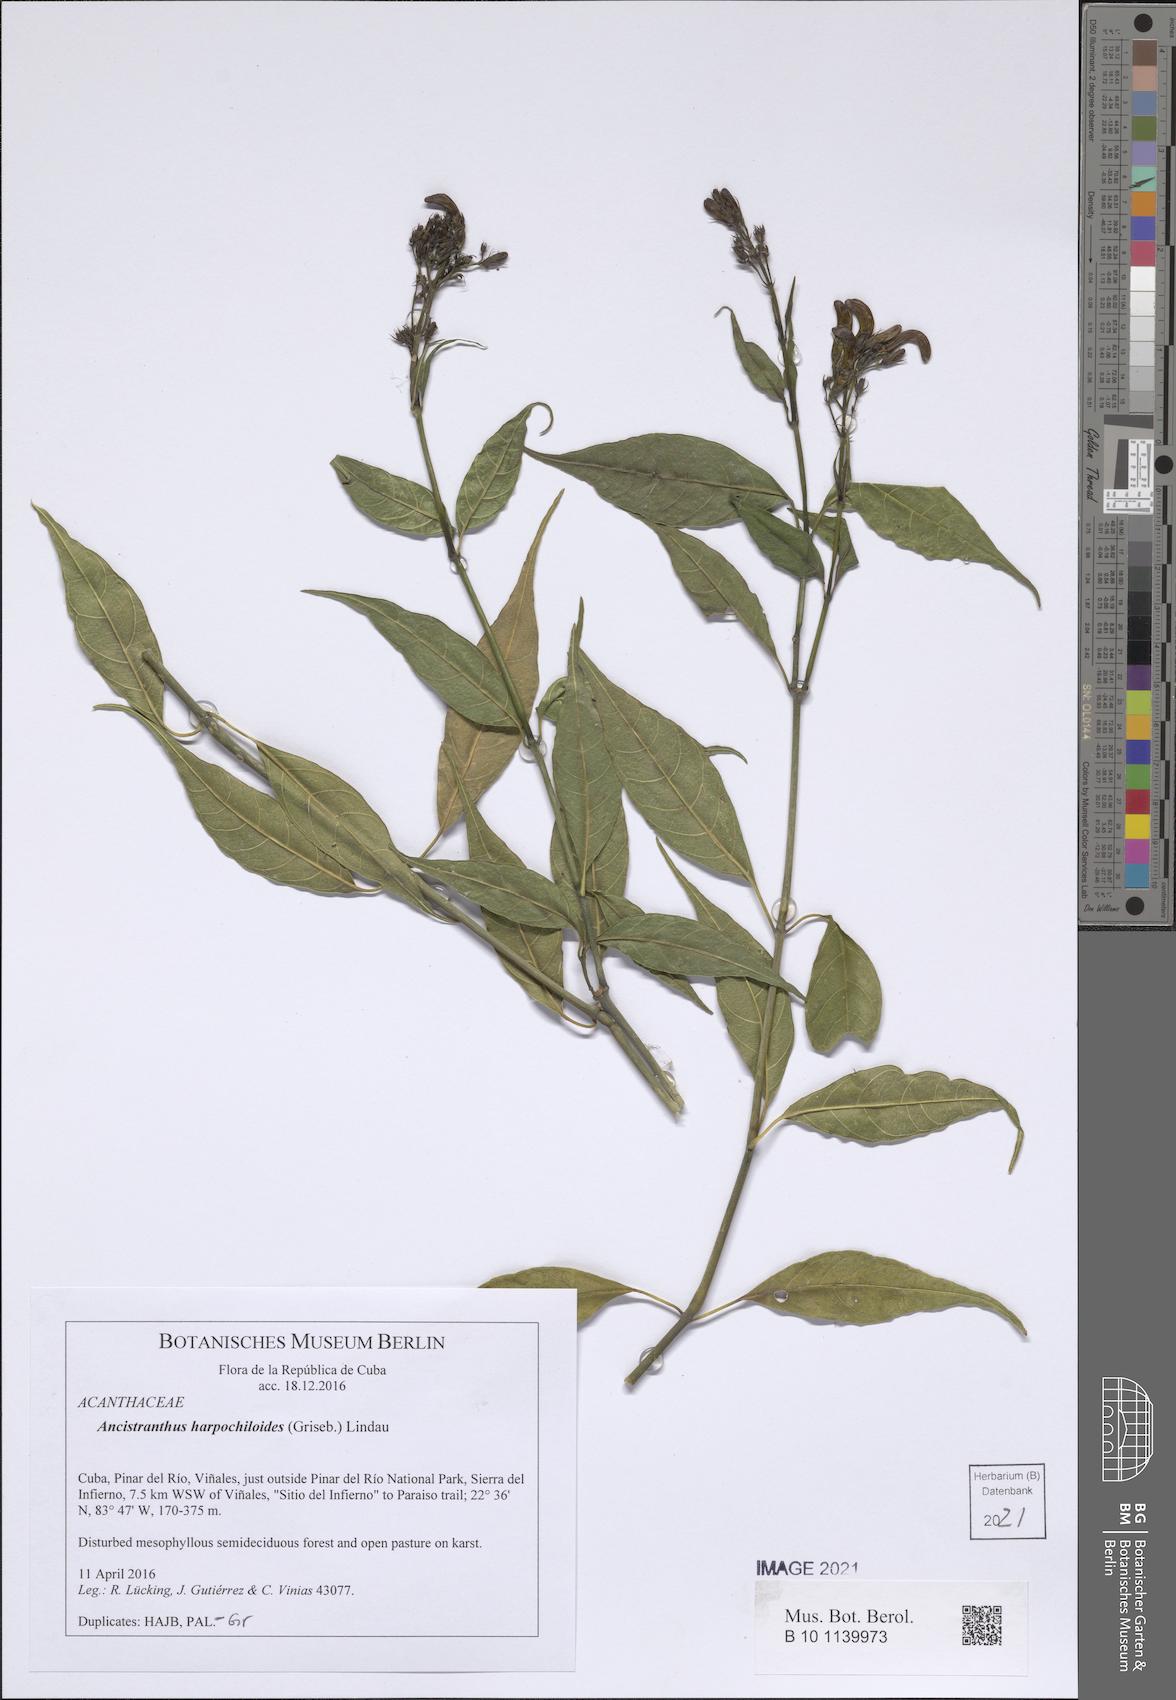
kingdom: Plantae
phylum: Tracheophyta
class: Magnoliopsida
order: Lamiales
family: Acanthaceae
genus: Ancistranthus
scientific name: Ancistranthus harpochiloides
